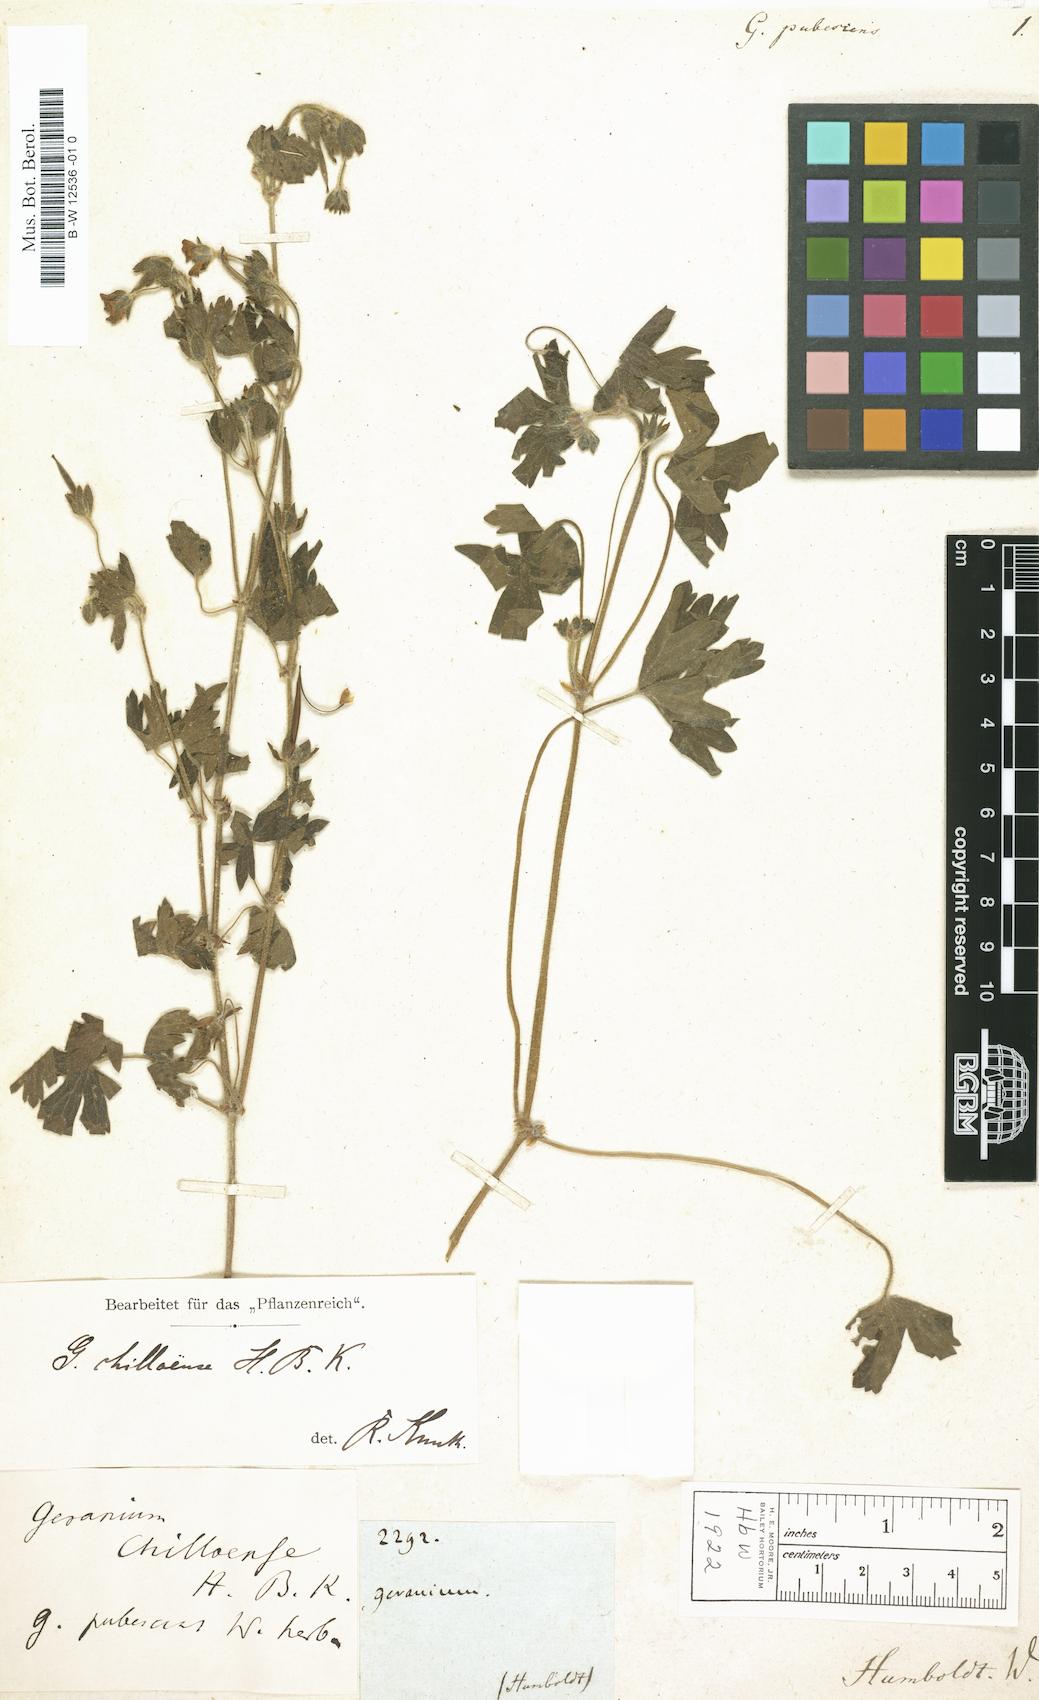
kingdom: Plantae
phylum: Tracheophyta
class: Magnoliopsida
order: Geraniales
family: Geraniaceae
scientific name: Geraniaceae
